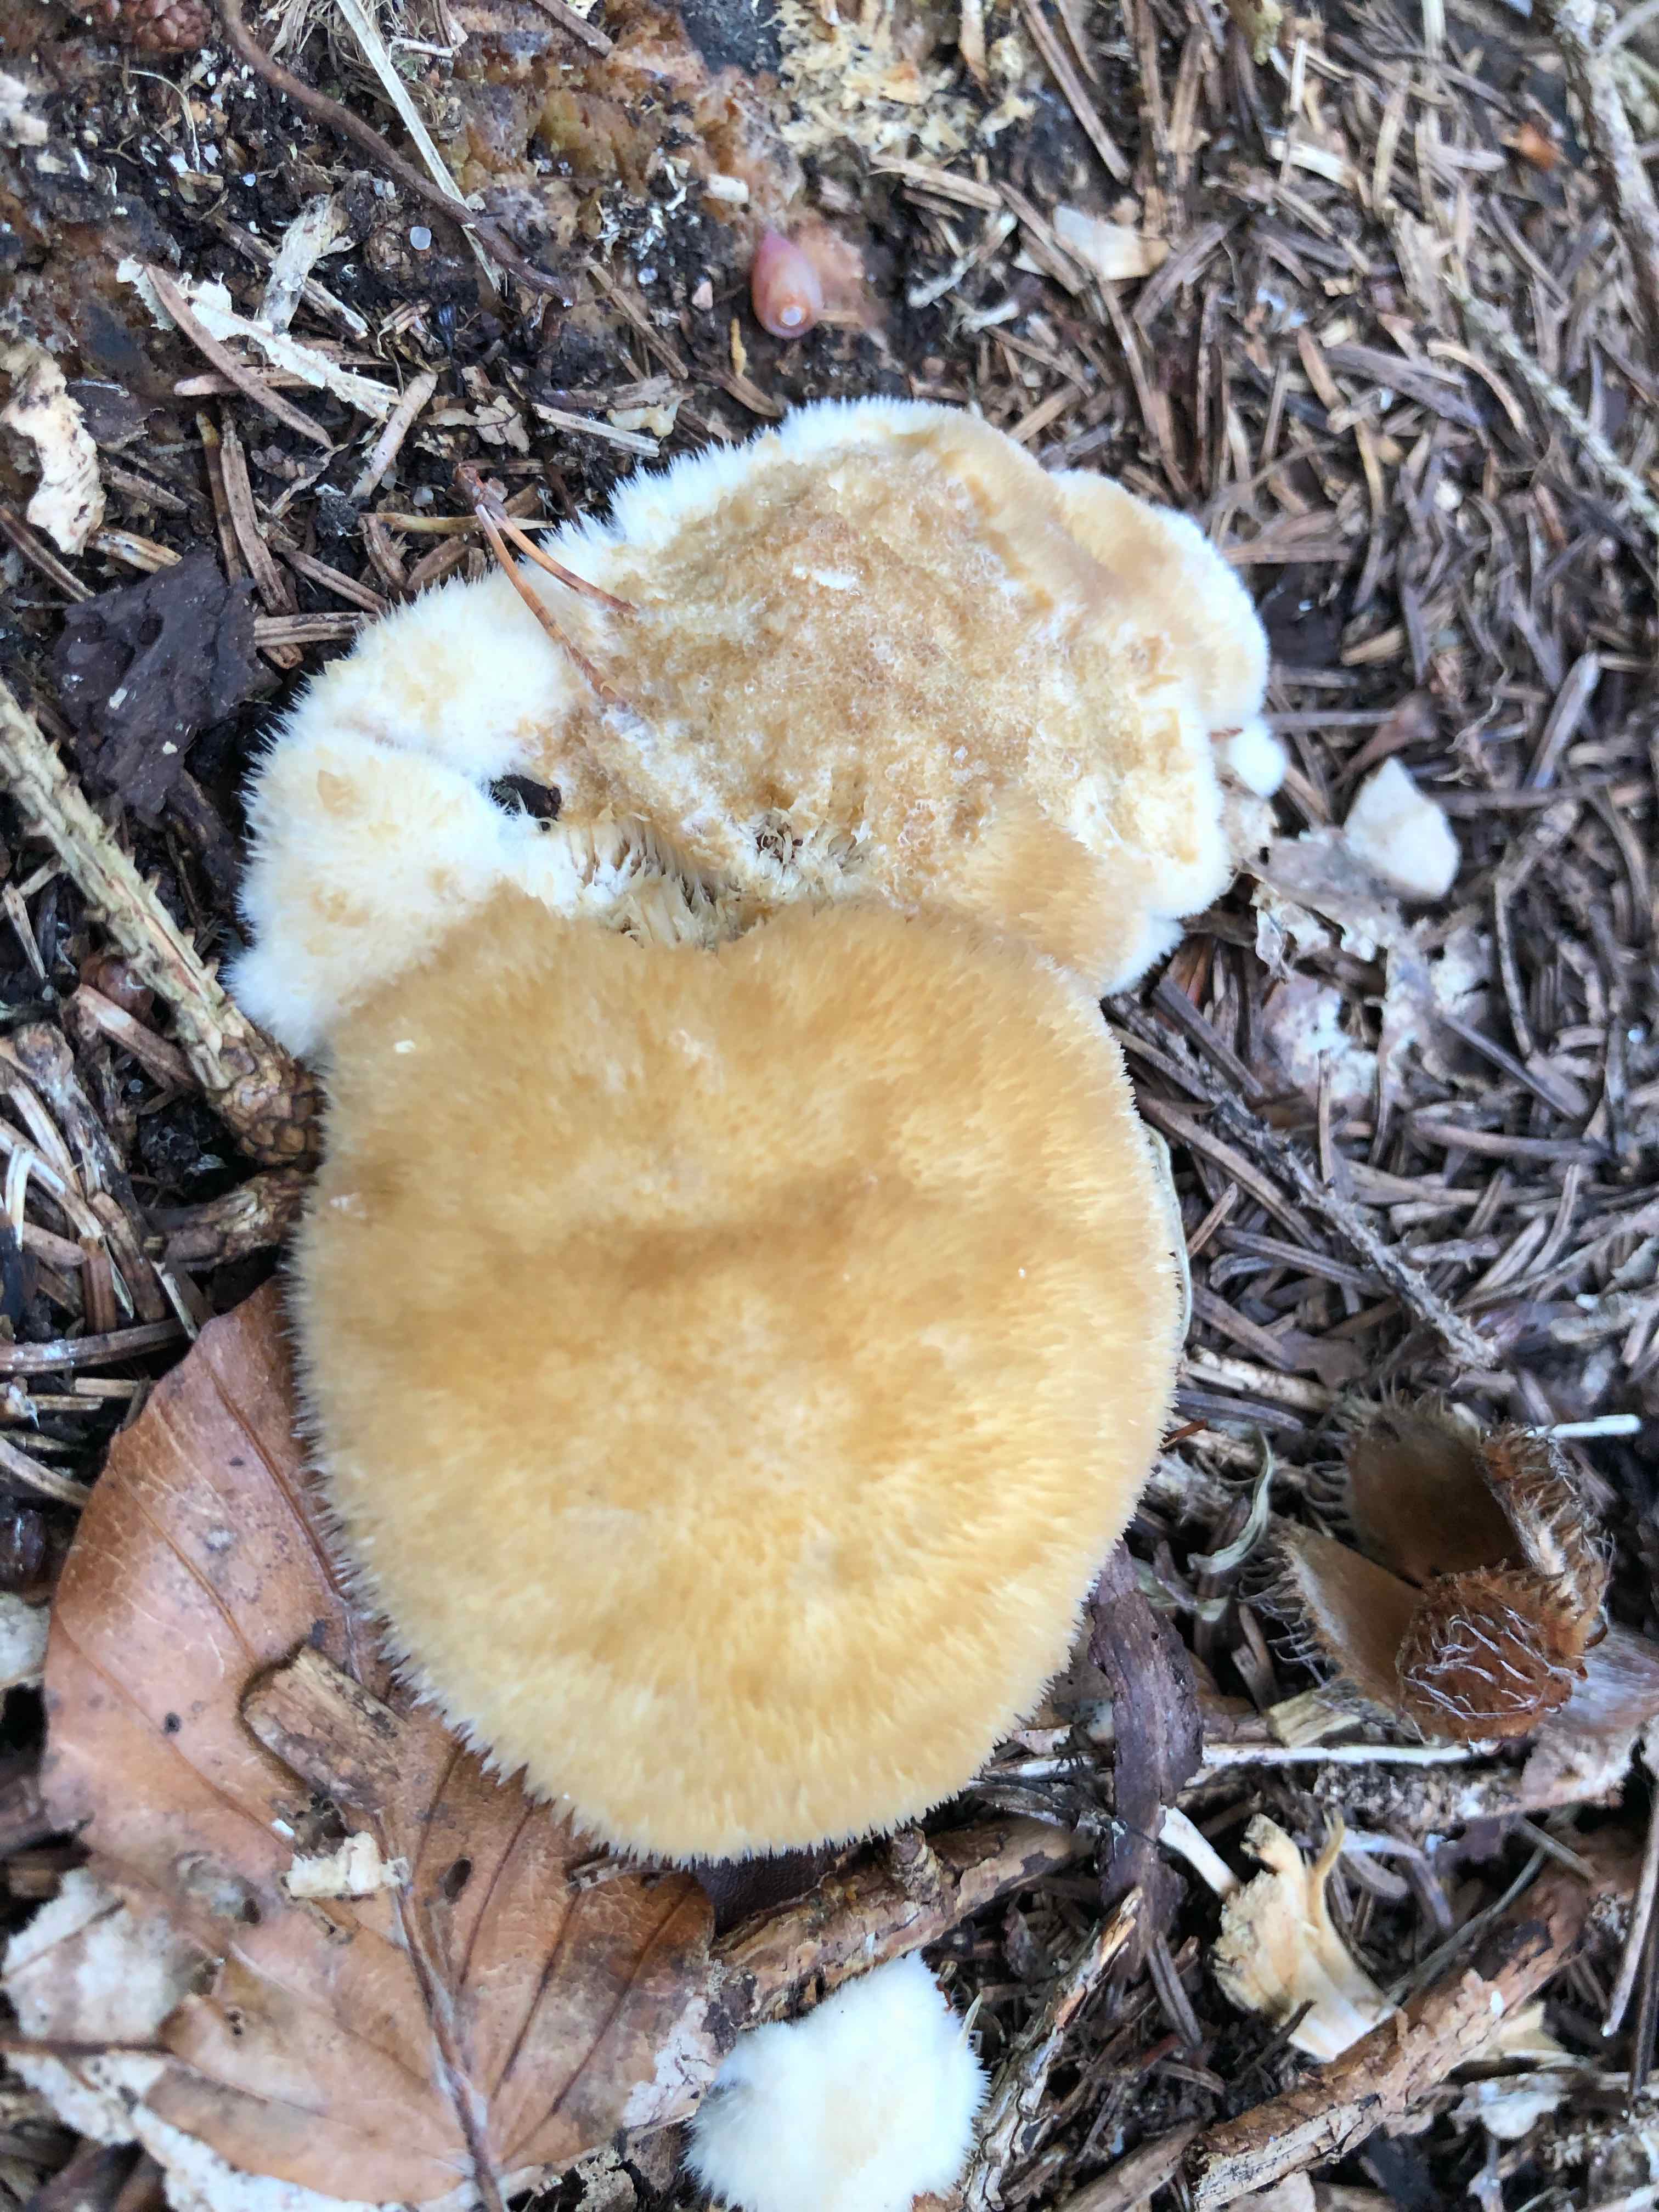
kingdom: Fungi
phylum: Basidiomycota
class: Agaricomycetes
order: Polyporales
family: Dacryobolaceae
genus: Postia
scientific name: Postia ptychogaster
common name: støvende kødporesvamp
